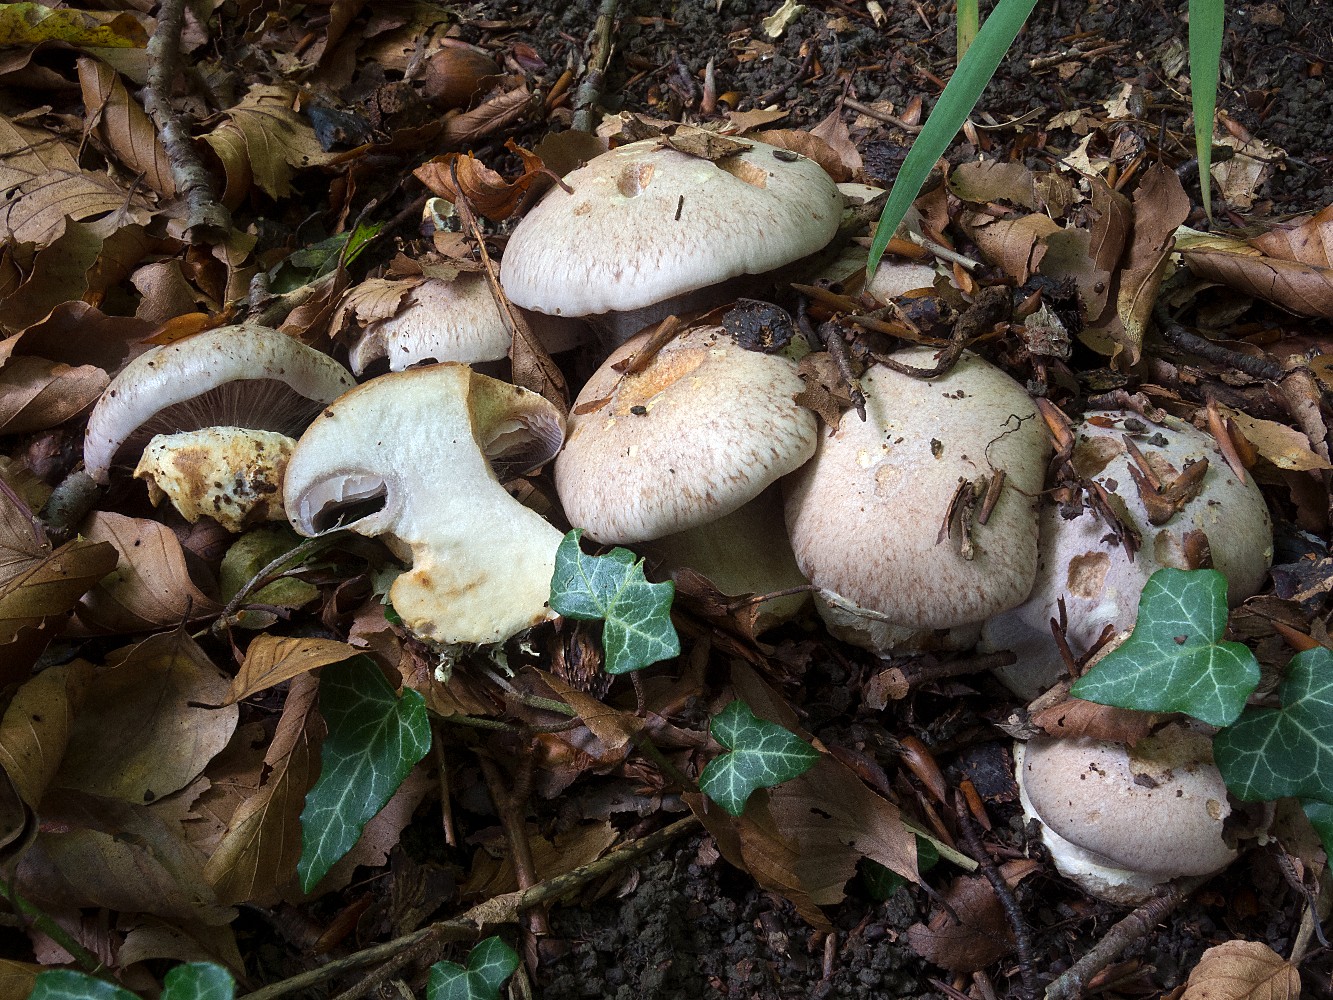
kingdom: Fungi
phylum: Basidiomycota
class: Agaricomycetes
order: Agaricales
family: Cortinariaceae
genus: Phlegmacium
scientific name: Phlegmacium coerulescentium
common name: gråbladet slørhat
